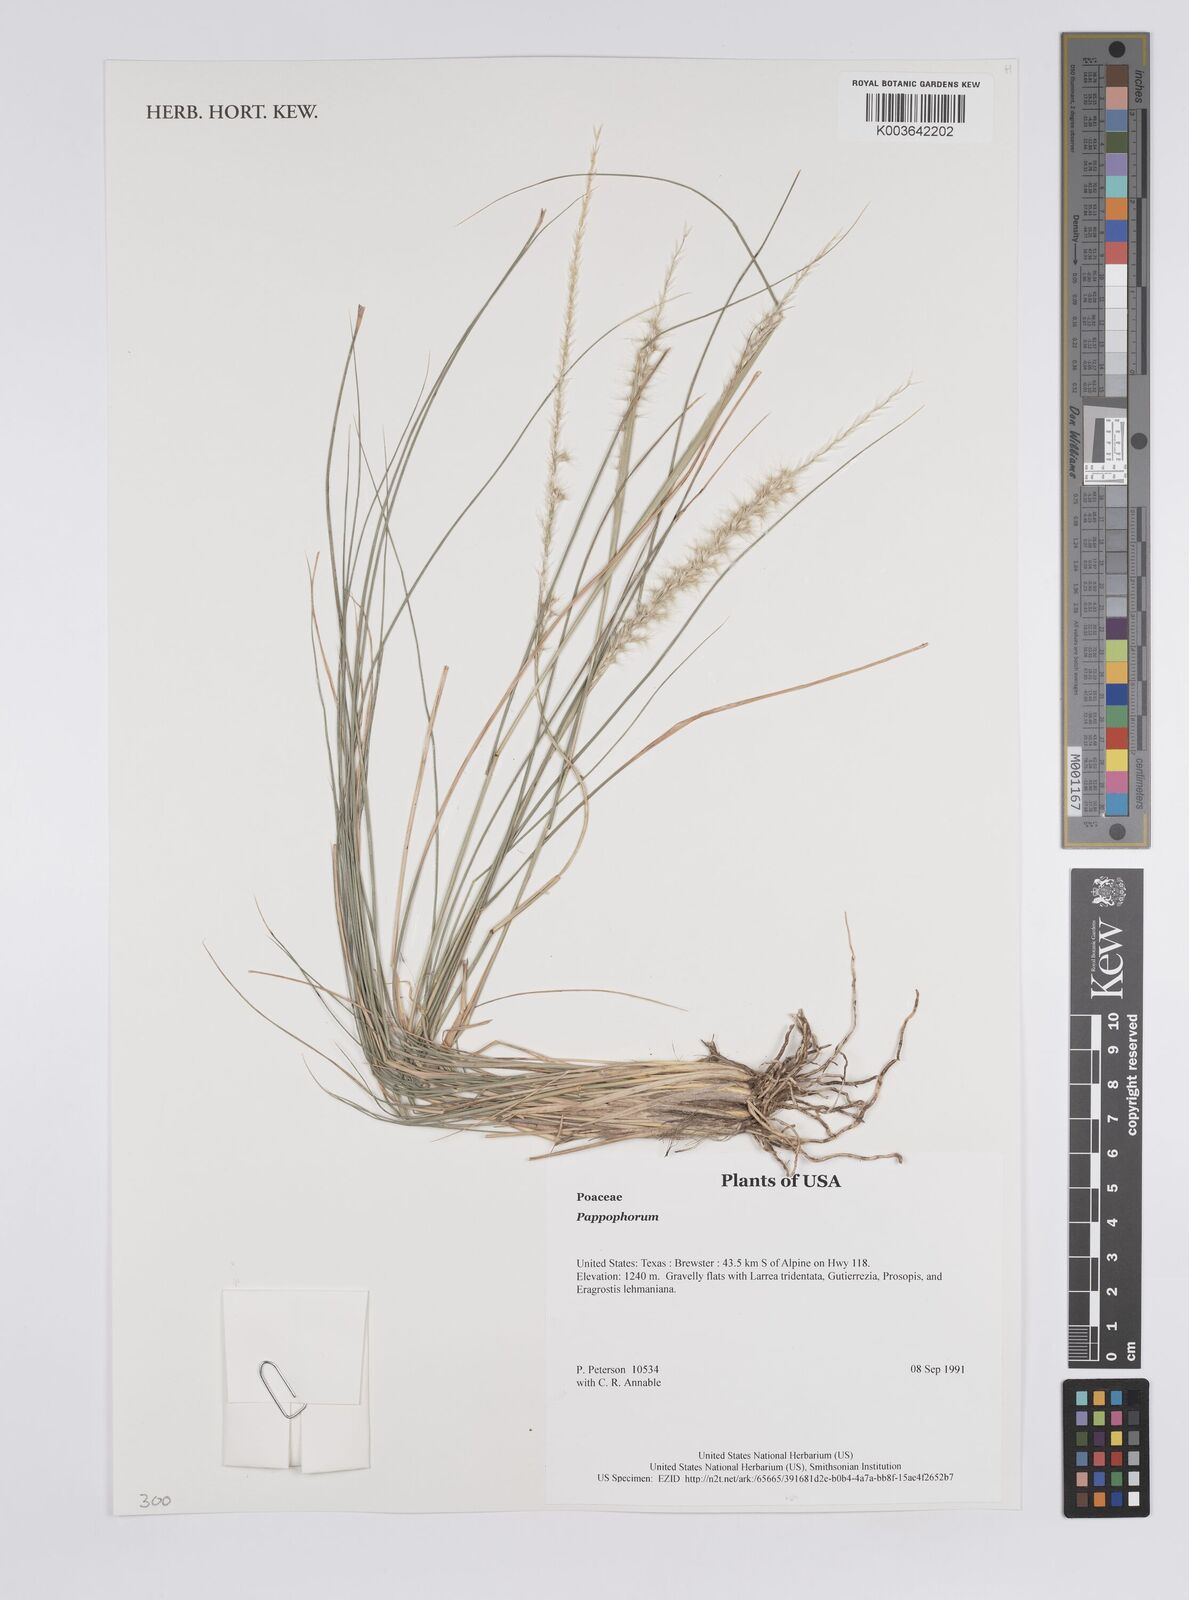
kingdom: Plantae
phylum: Tracheophyta
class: Liliopsida
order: Poales
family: Poaceae
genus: Pappophorum
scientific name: Pappophorum
